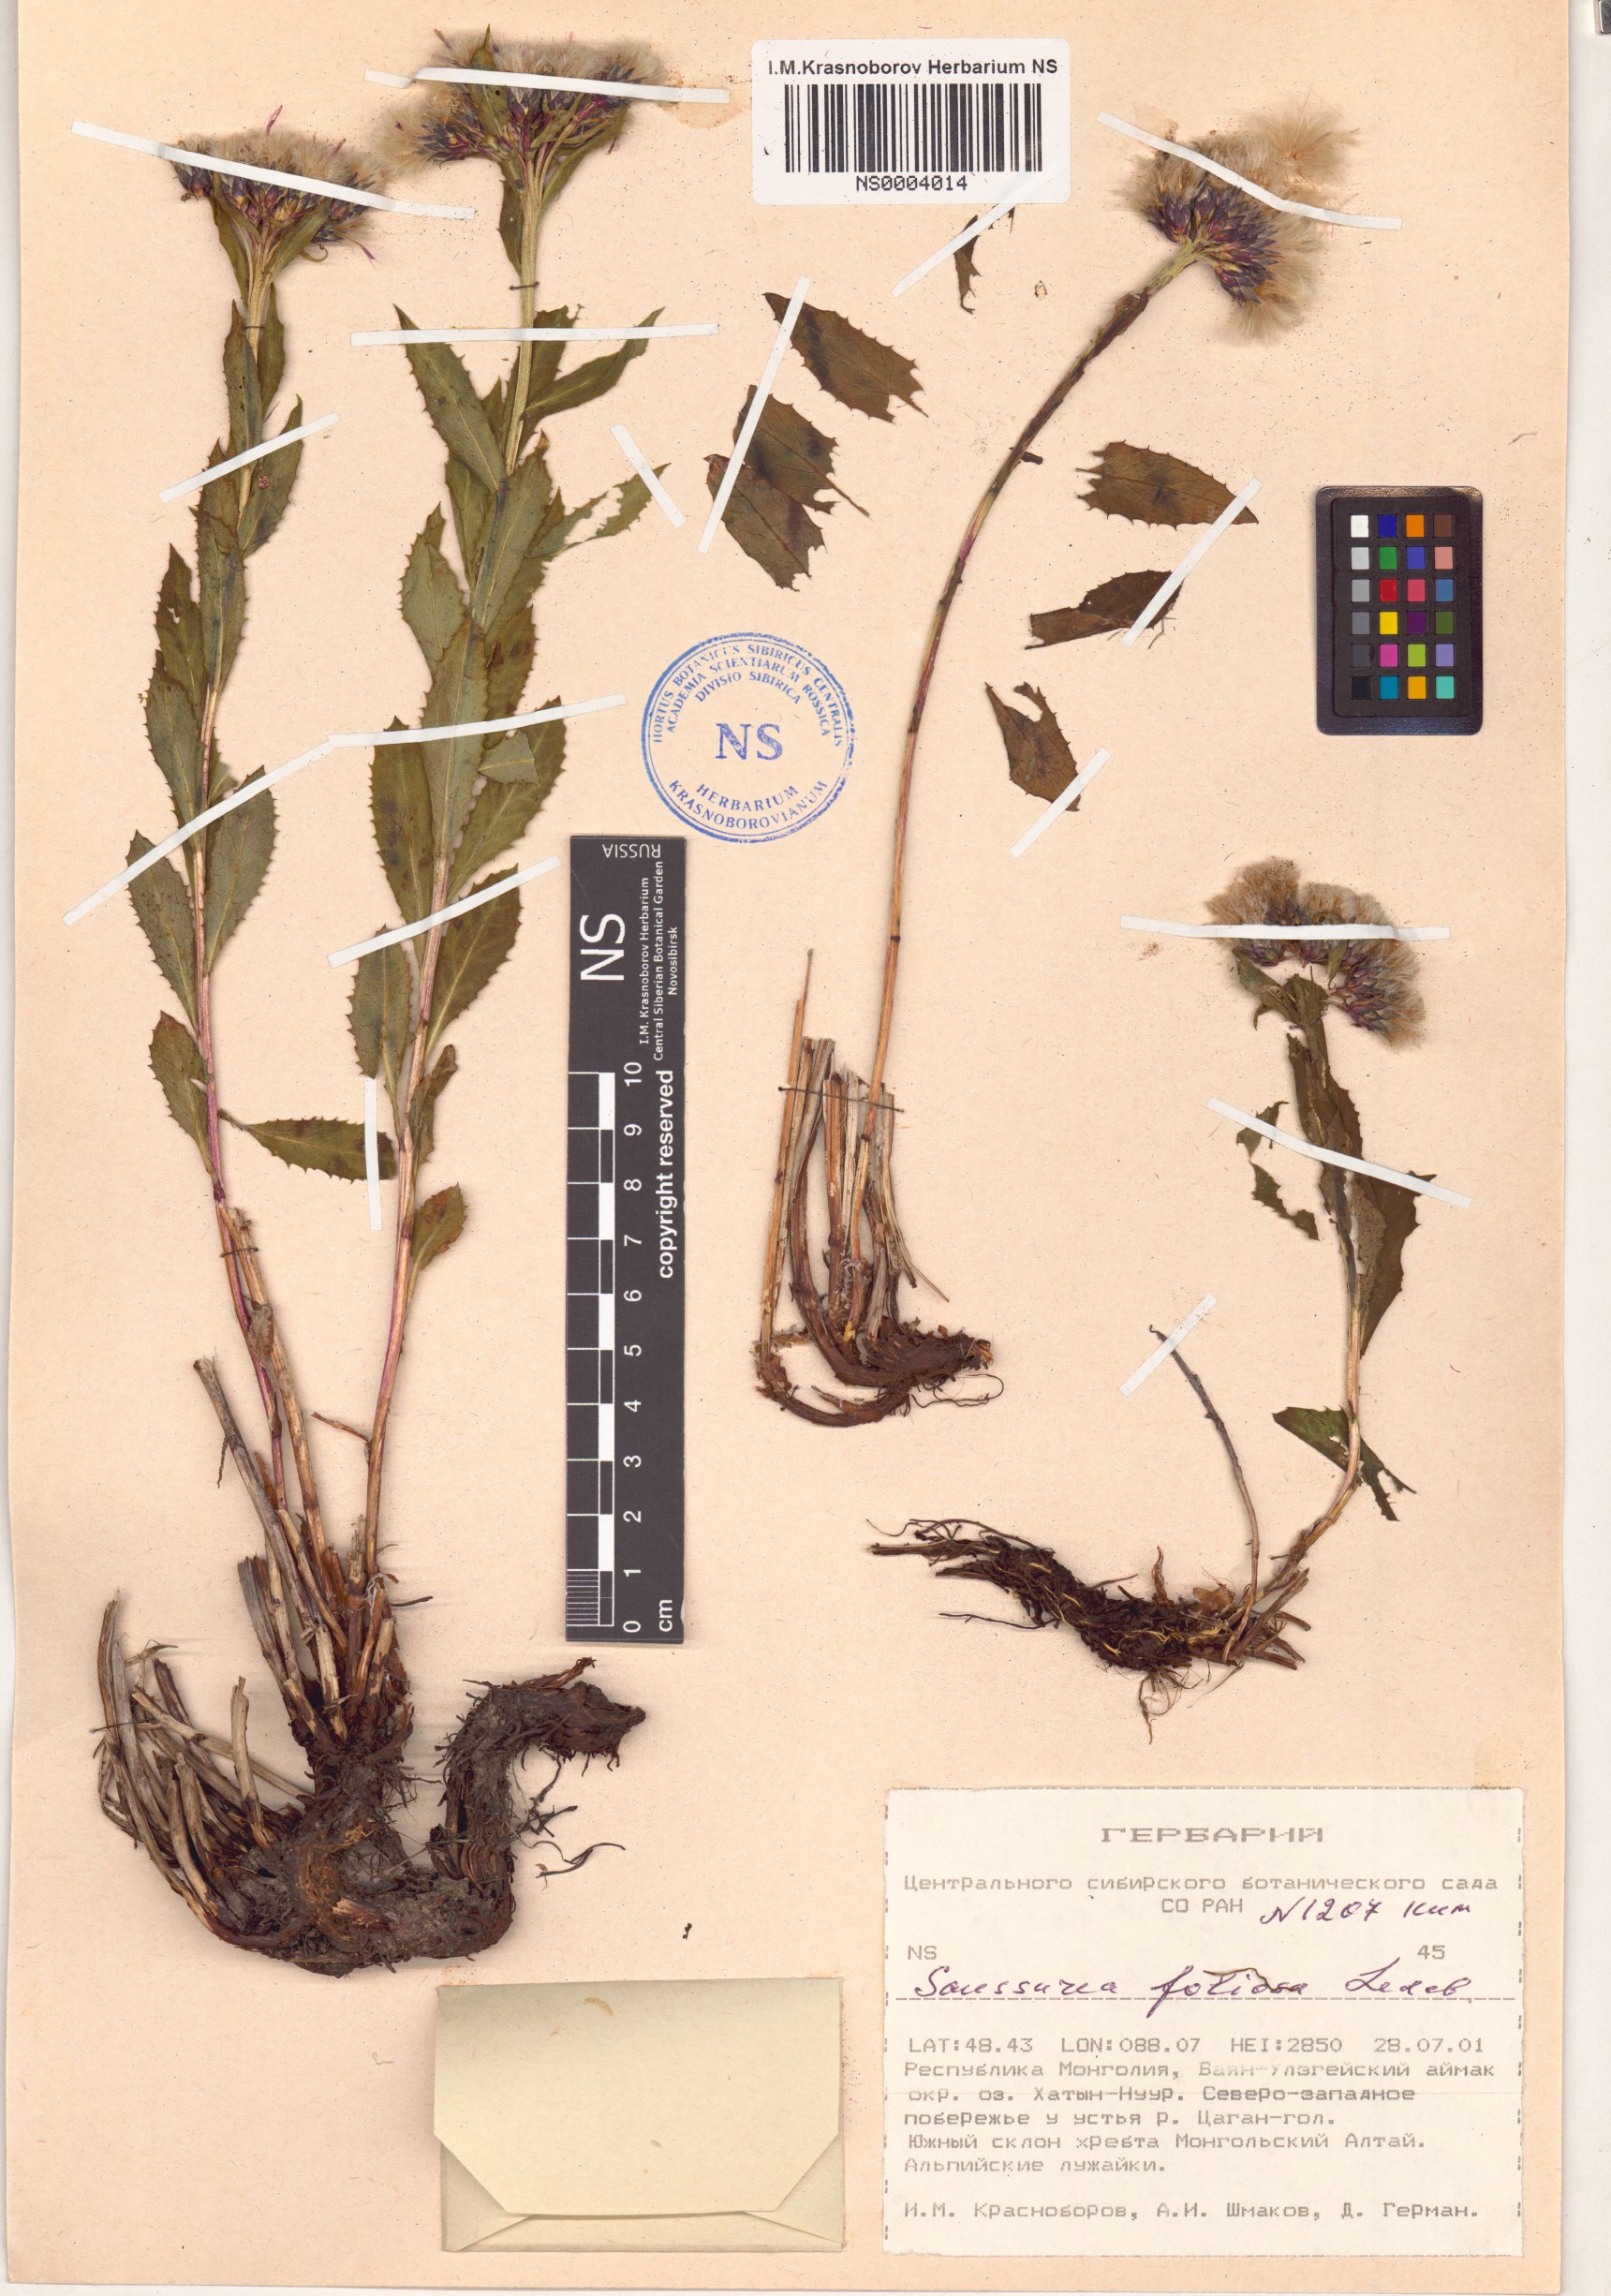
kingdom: Plantae
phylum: Tracheophyta
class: Magnoliopsida
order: Asterales
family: Asteraceae
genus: Saussurea
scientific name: Saussurea foliosa
